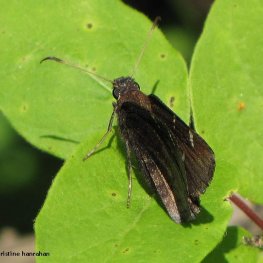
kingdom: Animalia
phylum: Arthropoda
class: Insecta
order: Lepidoptera
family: Hesperiidae
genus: Autochton
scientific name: Autochton
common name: Northern Cloudywing
